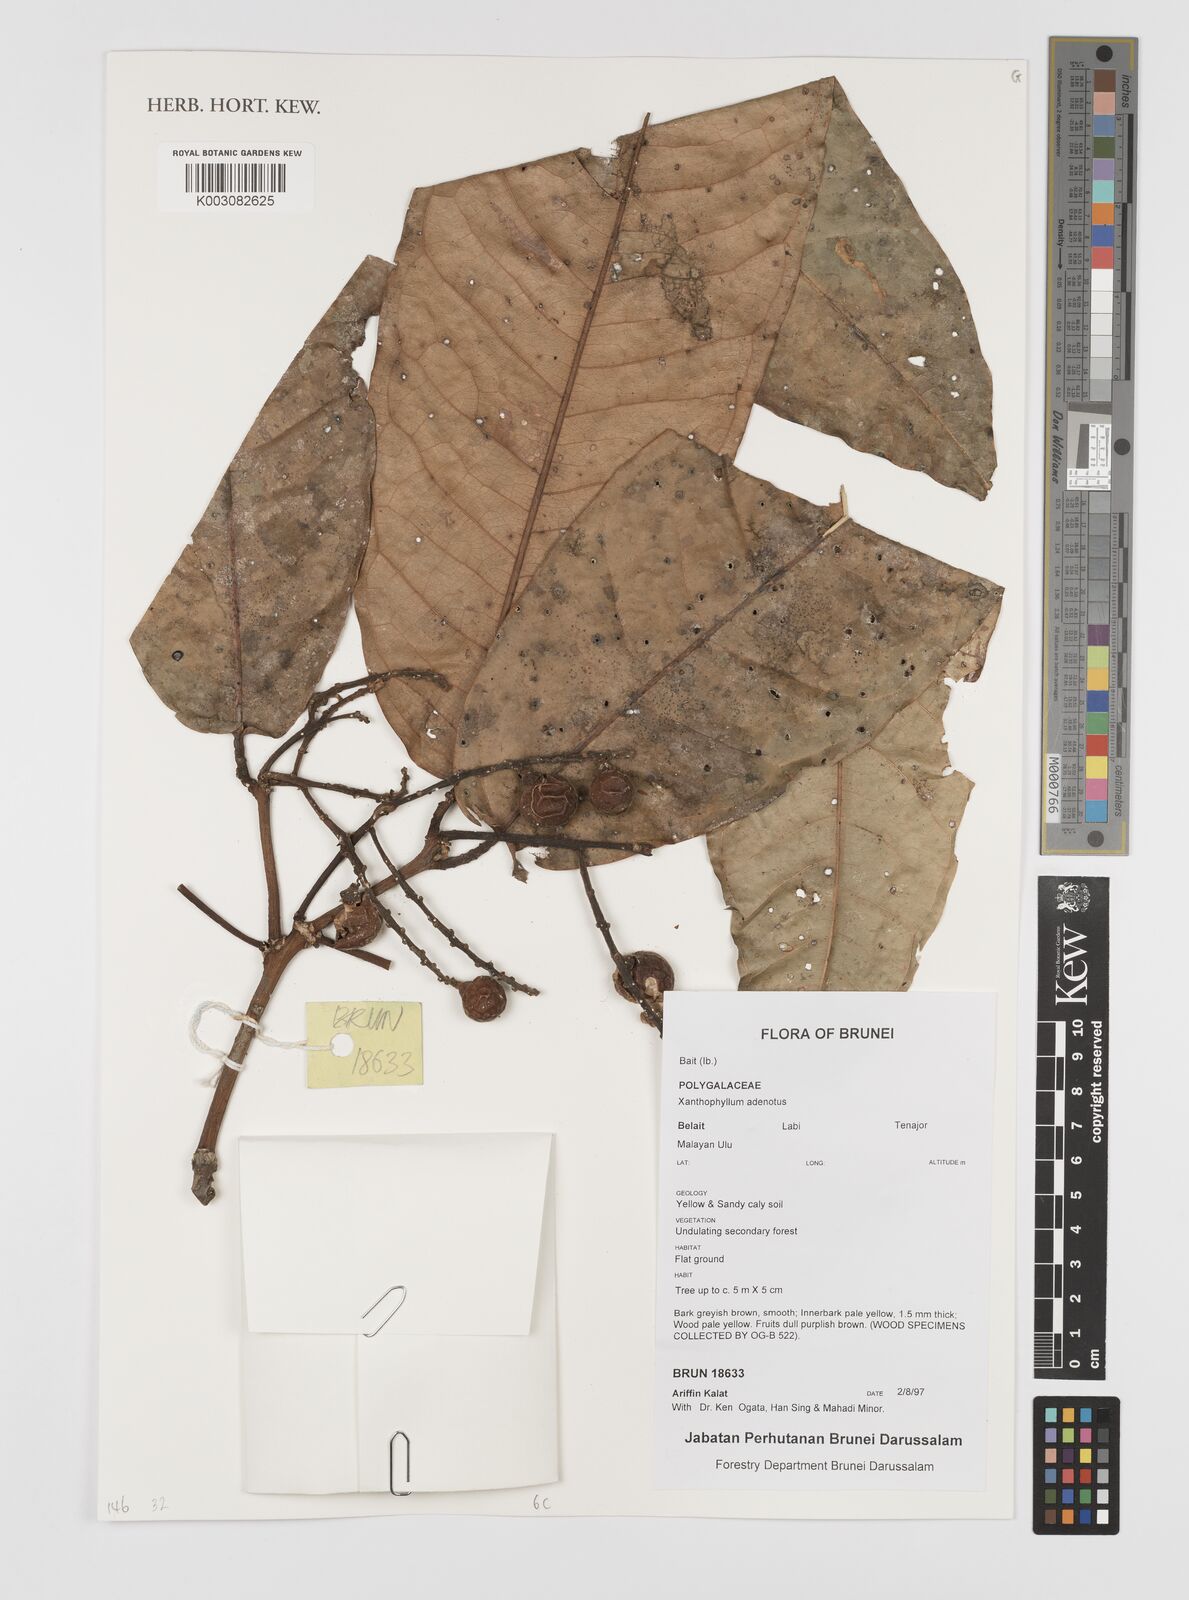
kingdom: Plantae
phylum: Tracheophyta
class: Magnoliopsida
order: Fabales
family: Polygalaceae
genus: Xanthophyllum
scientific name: Xanthophyllum adenotus
